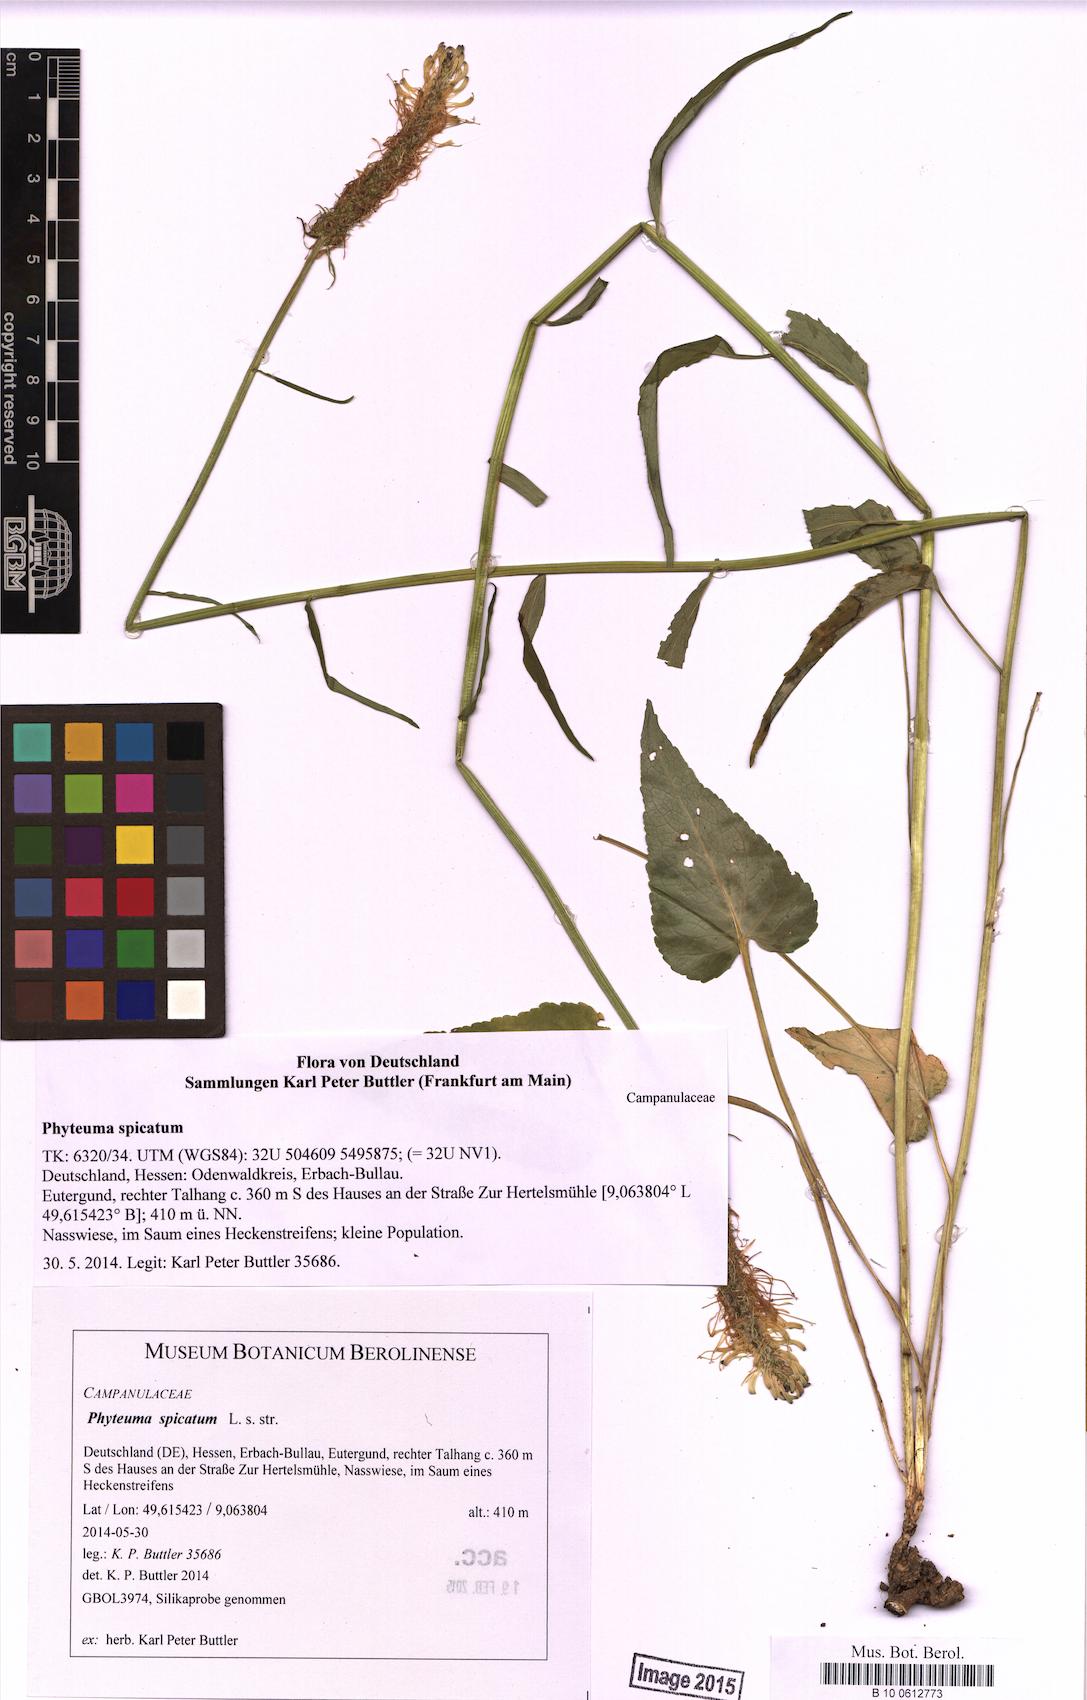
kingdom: Plantae
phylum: Tracheophyta
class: Magnoliopsida
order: Asterales
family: Campanulaceae
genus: Phyteuma
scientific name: Phyteuma spicatum
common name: Spiked rampion
